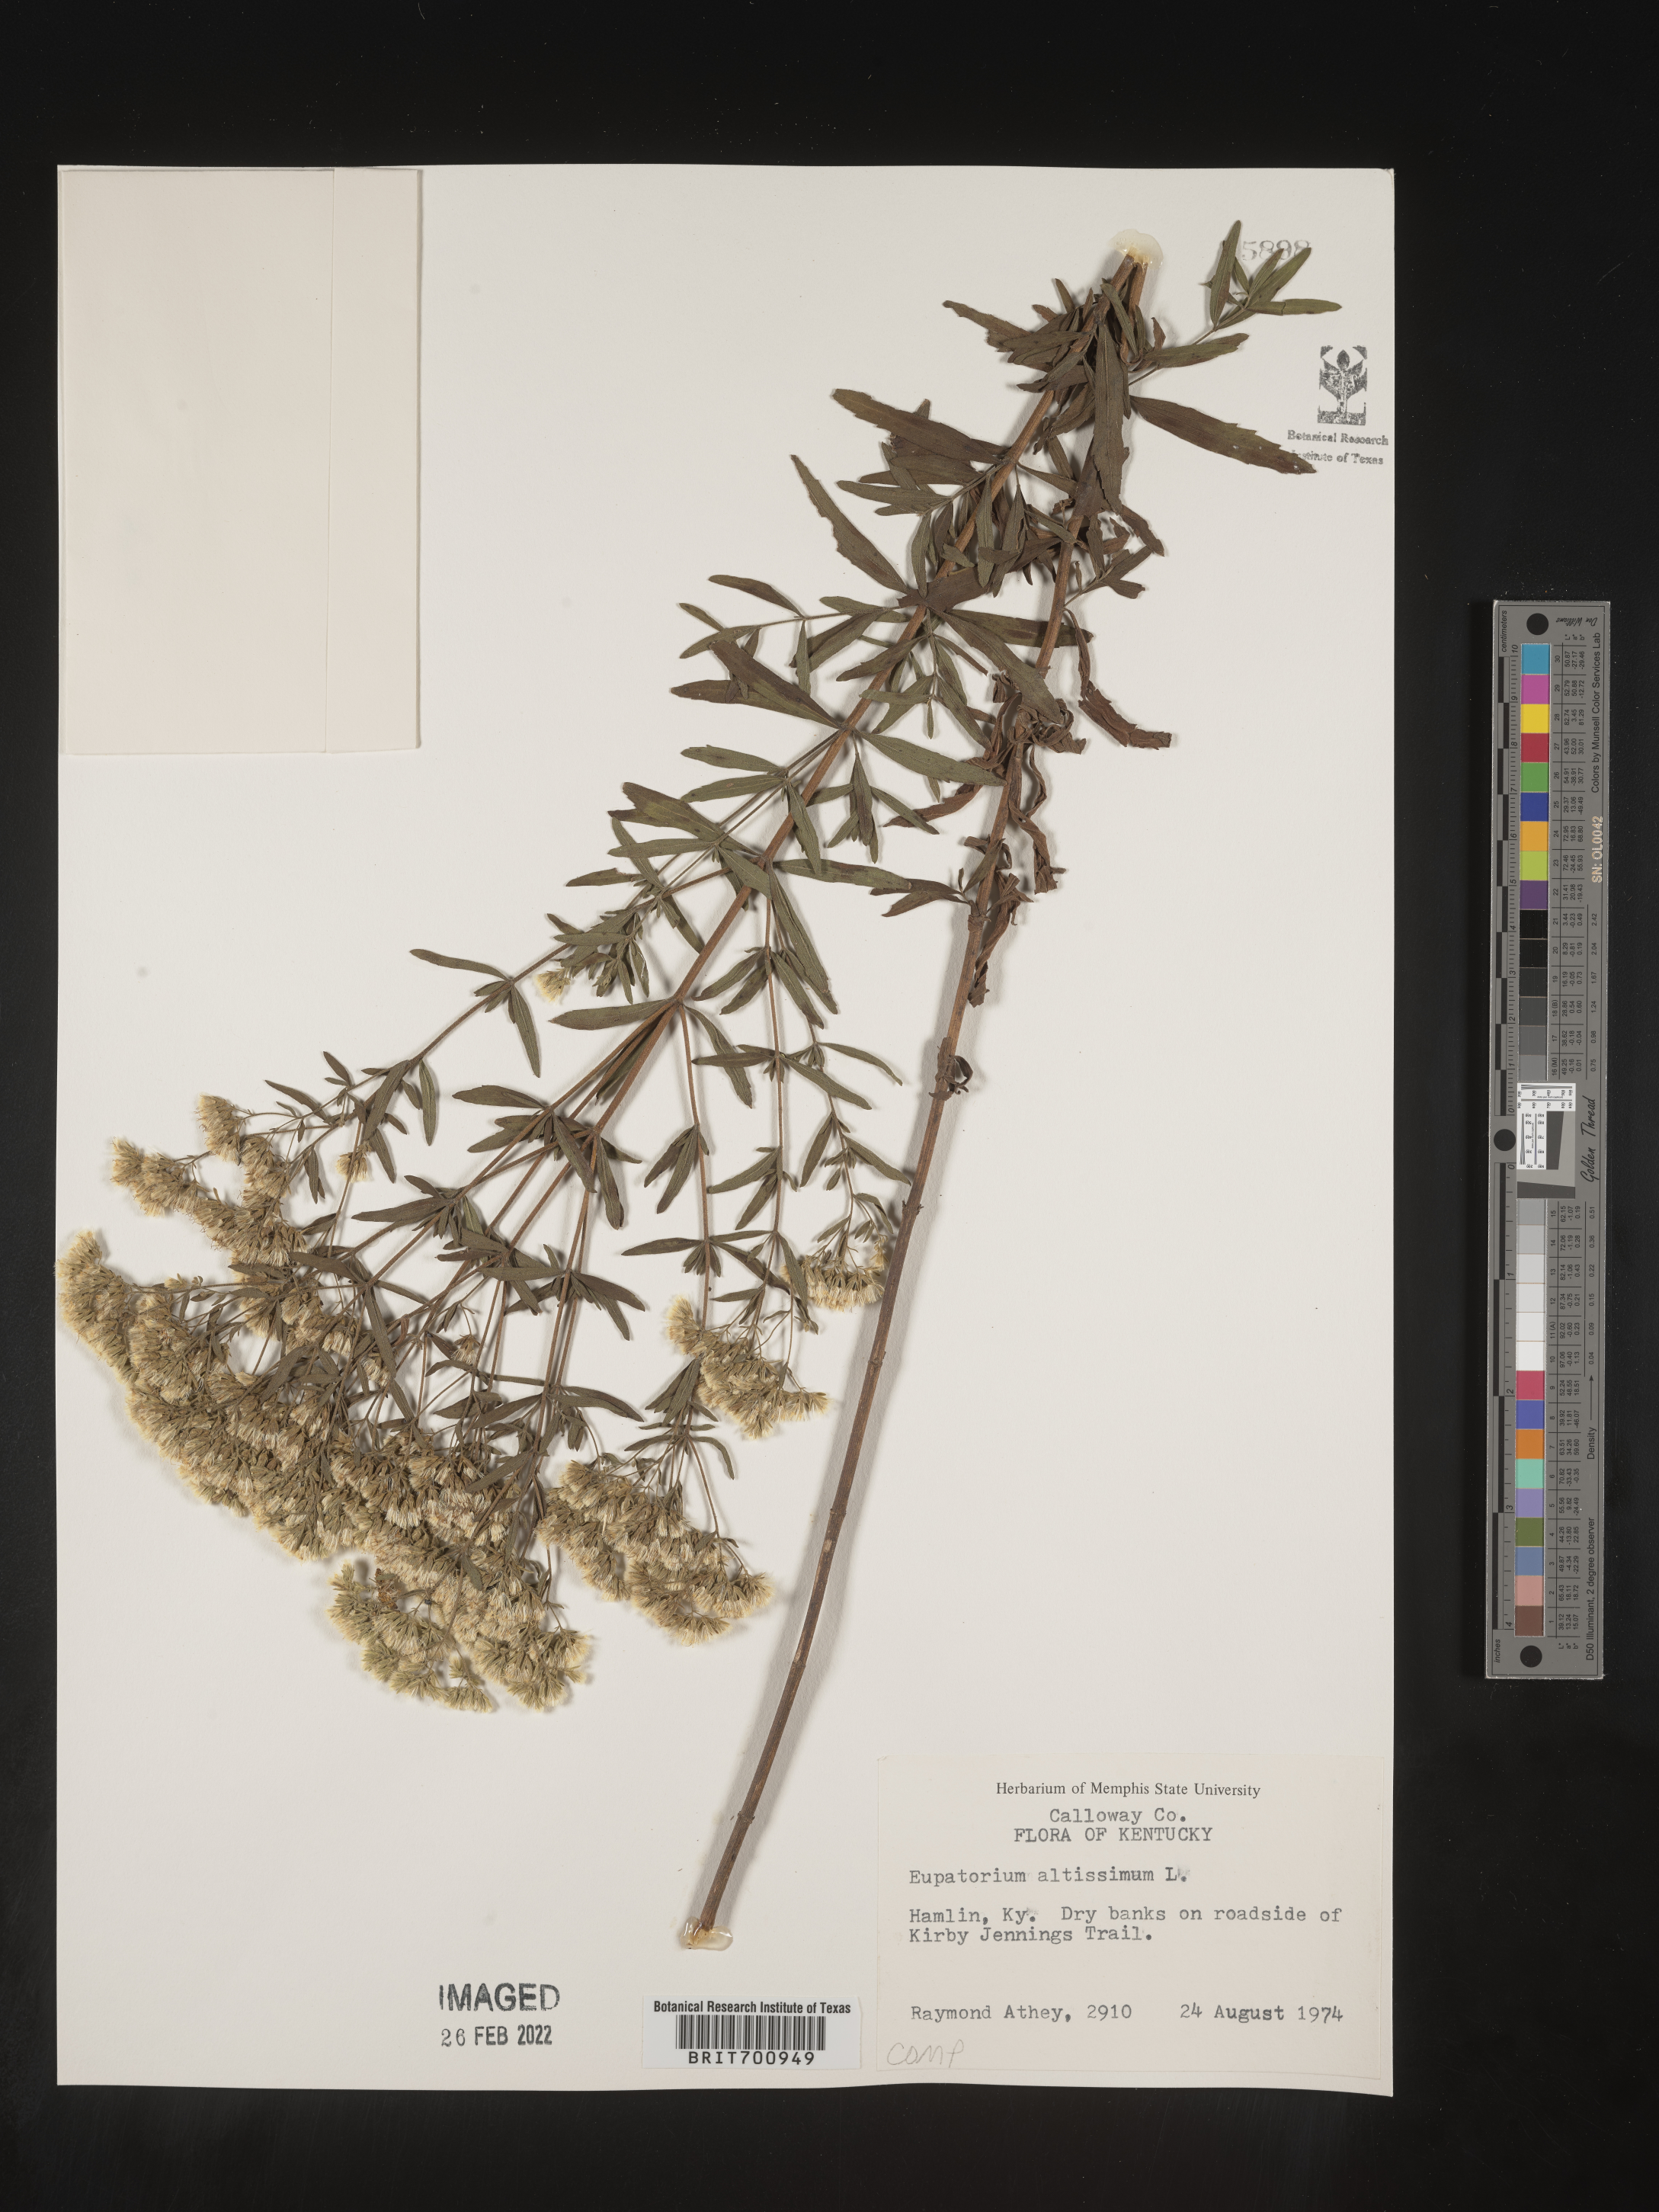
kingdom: Plantae
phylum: Tracheophyta
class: Magnoliopsida
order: Asterales
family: Asteraceae
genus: Eupatorium
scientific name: Eupatorium altissimum
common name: Tall thoroughwort
